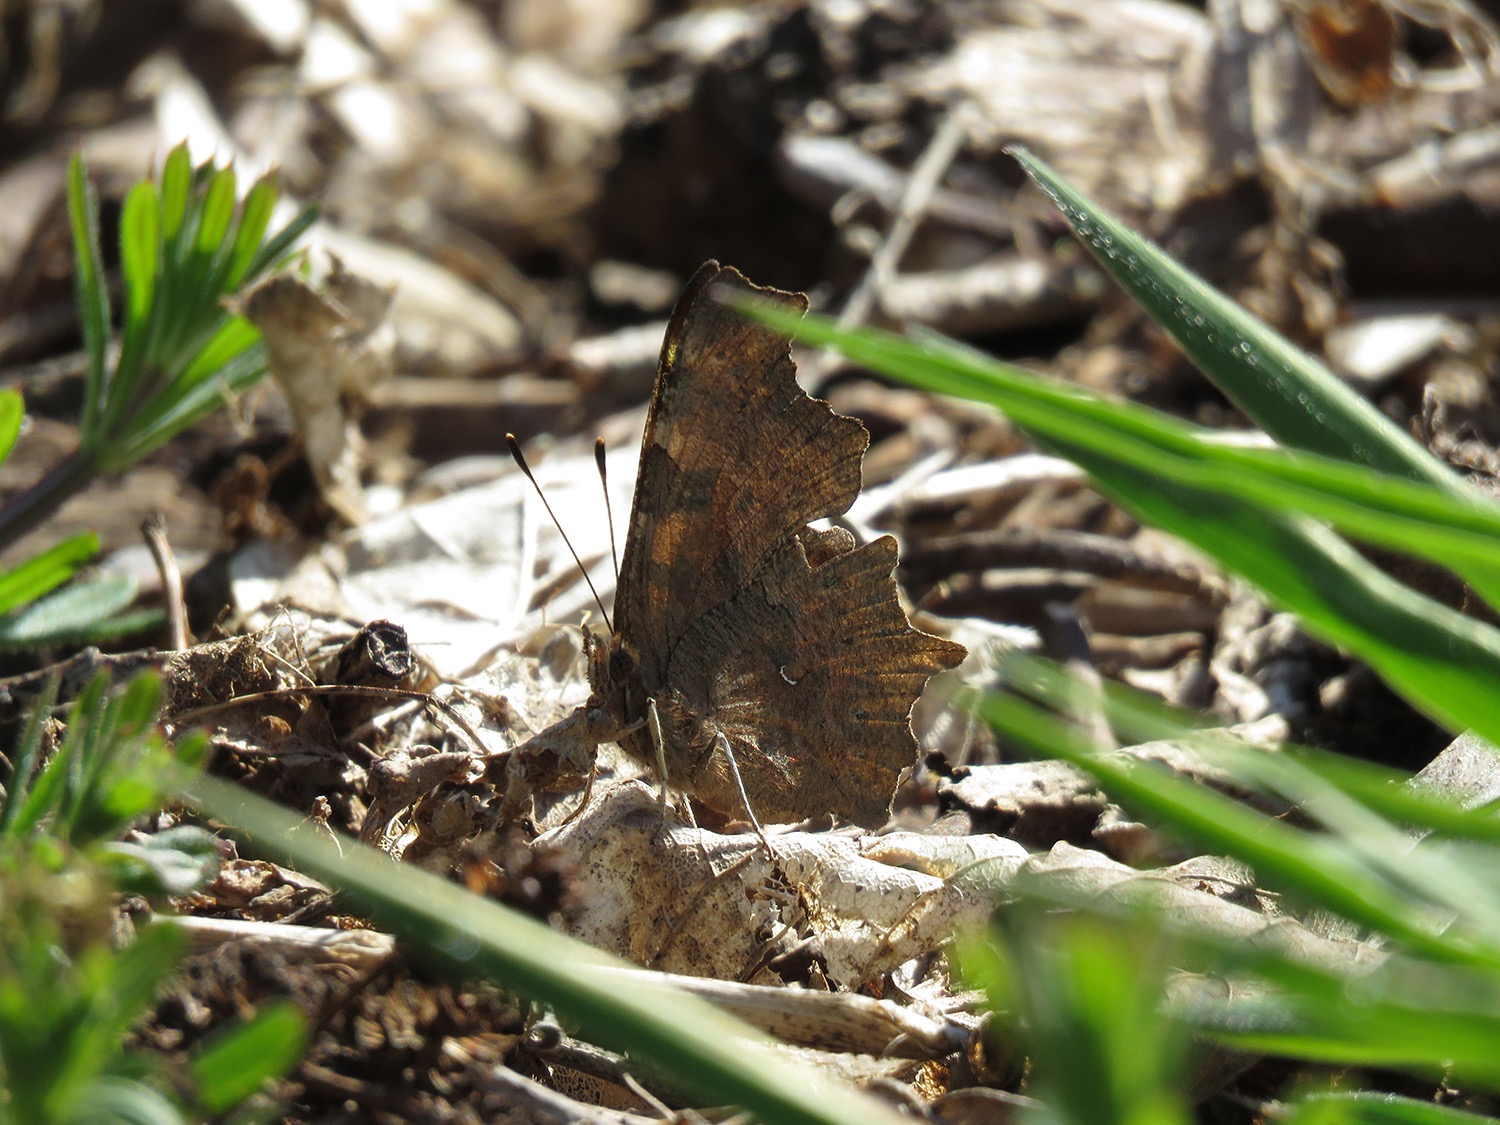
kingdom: Animalia
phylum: Arthropoda
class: Insecta
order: Lepidoptera
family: Nymphalidae
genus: Polygonia
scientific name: Polygonia c-album
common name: Det hvide C
